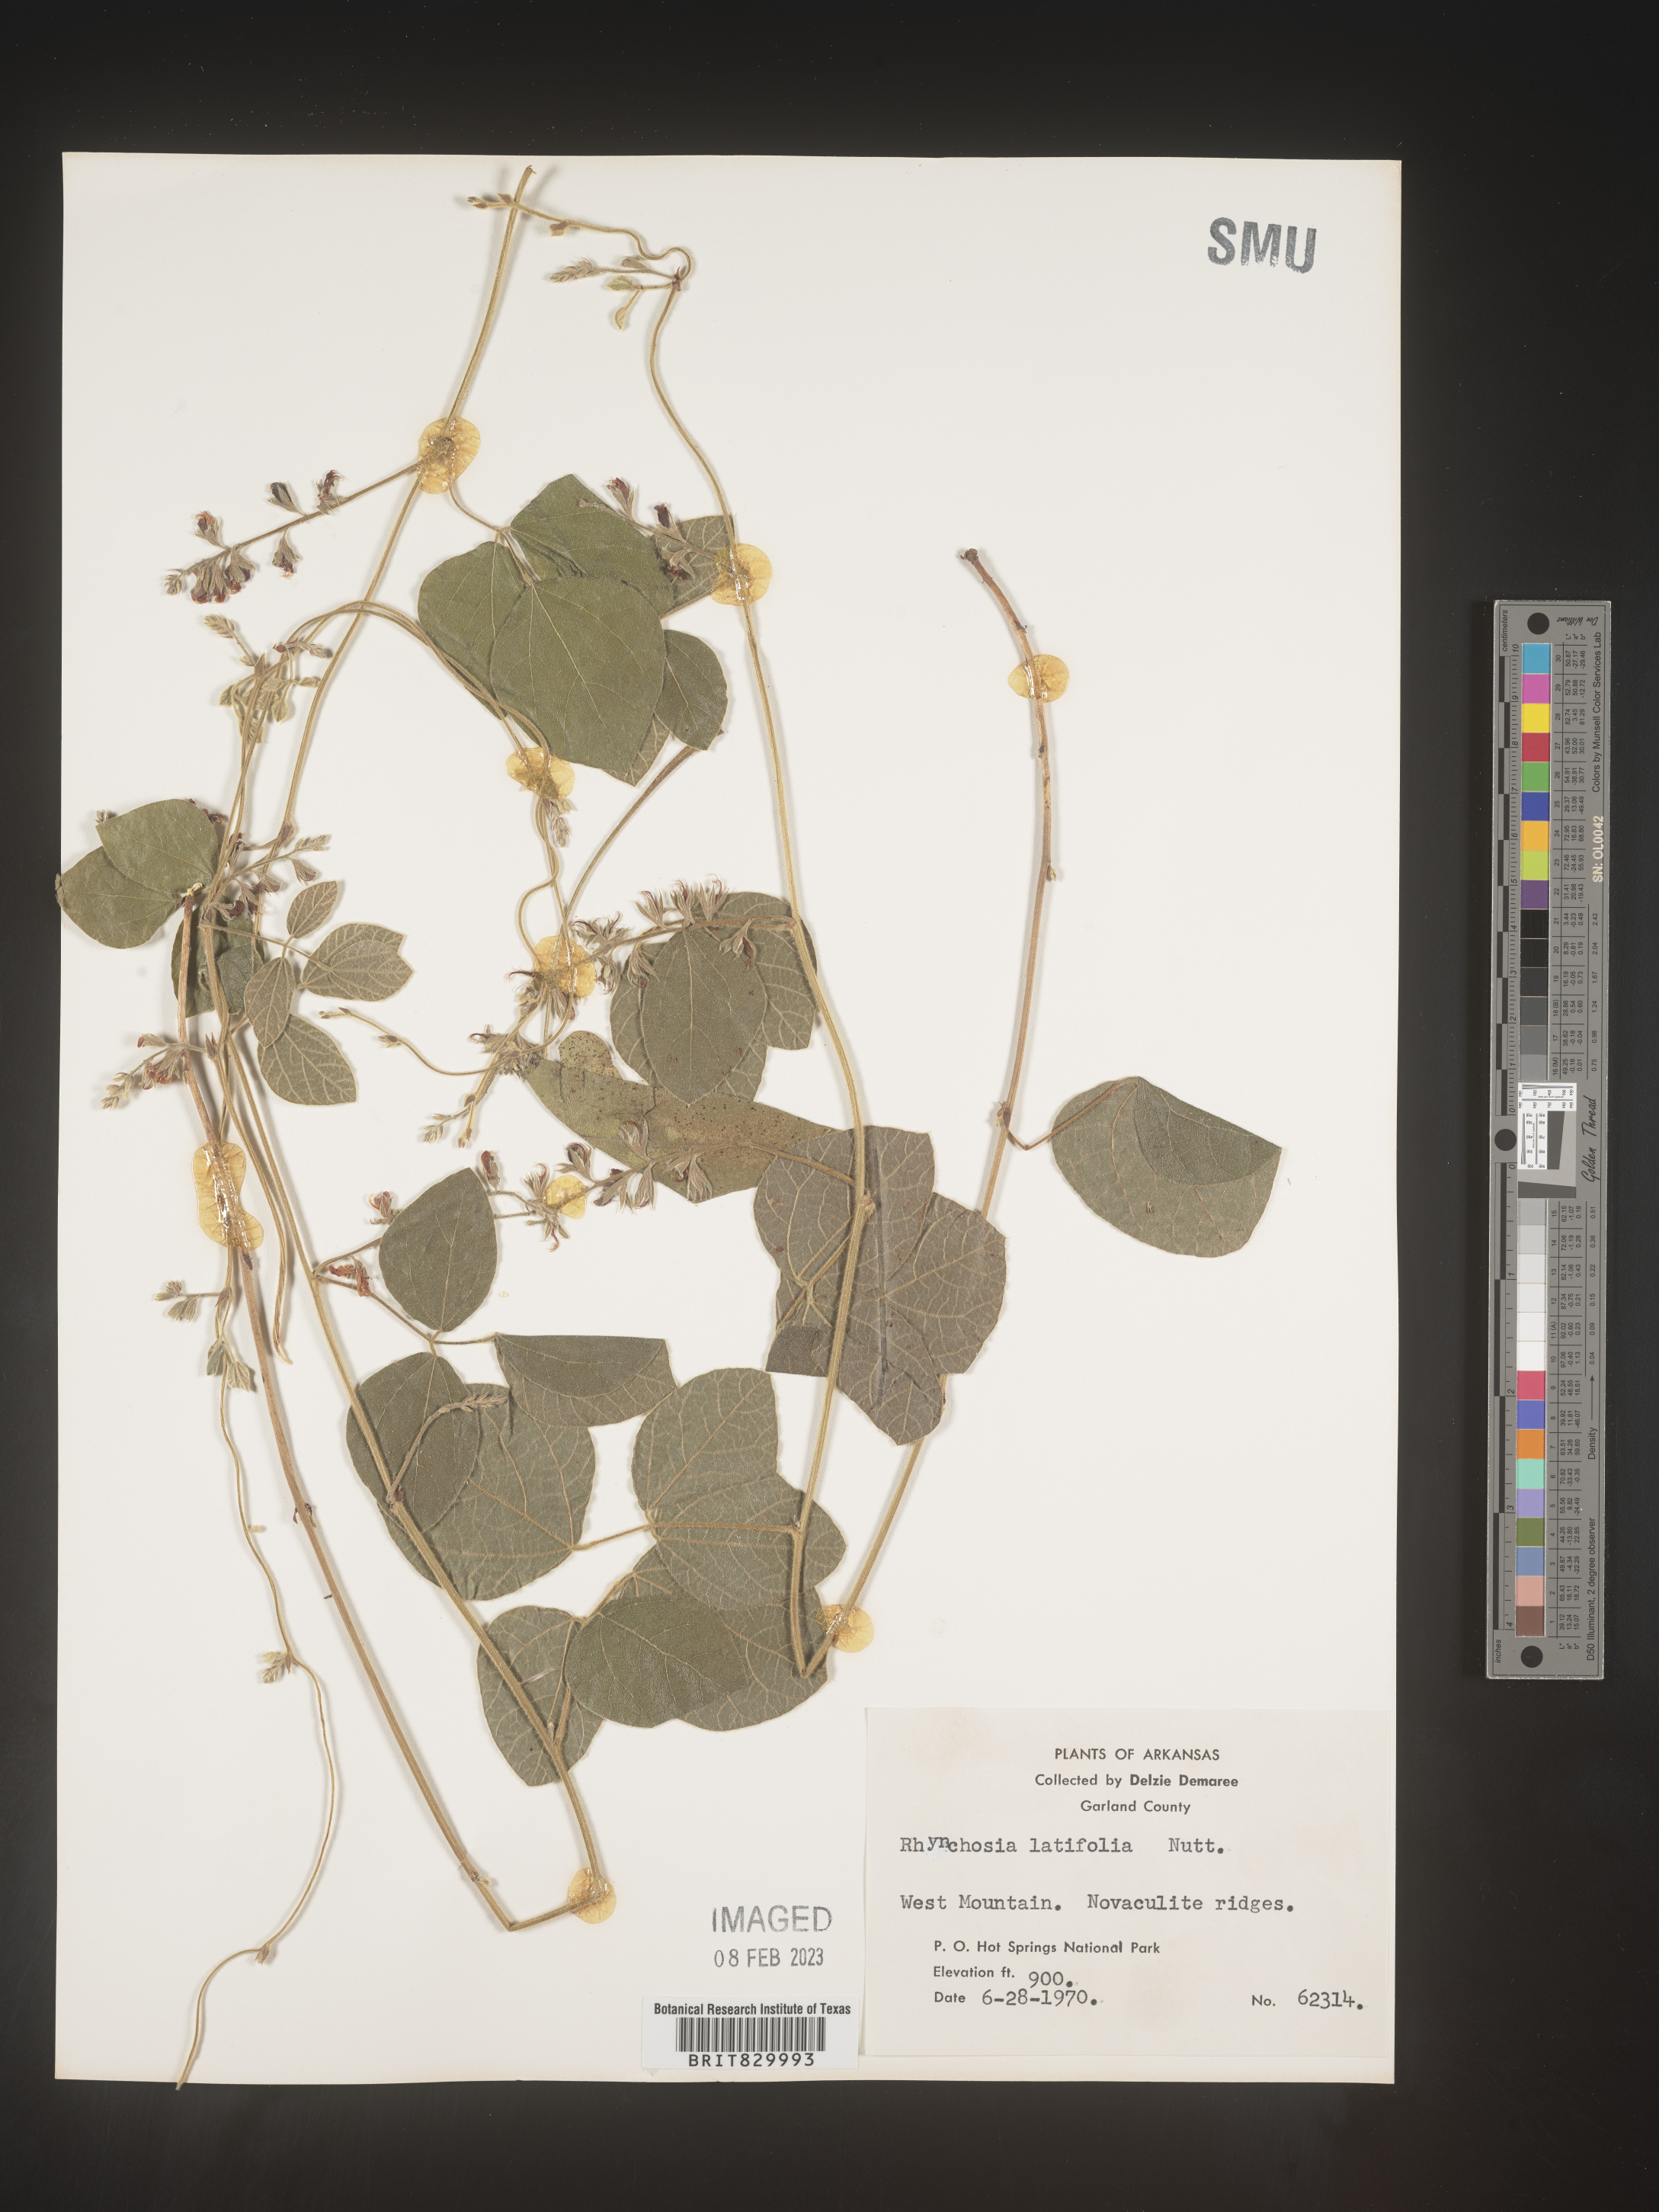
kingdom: Plantae
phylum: Tracheophyta
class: Magnoliopsida
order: Fabales
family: Fabaceae
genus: Rhynchosia
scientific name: Rhynchosia latifolia
